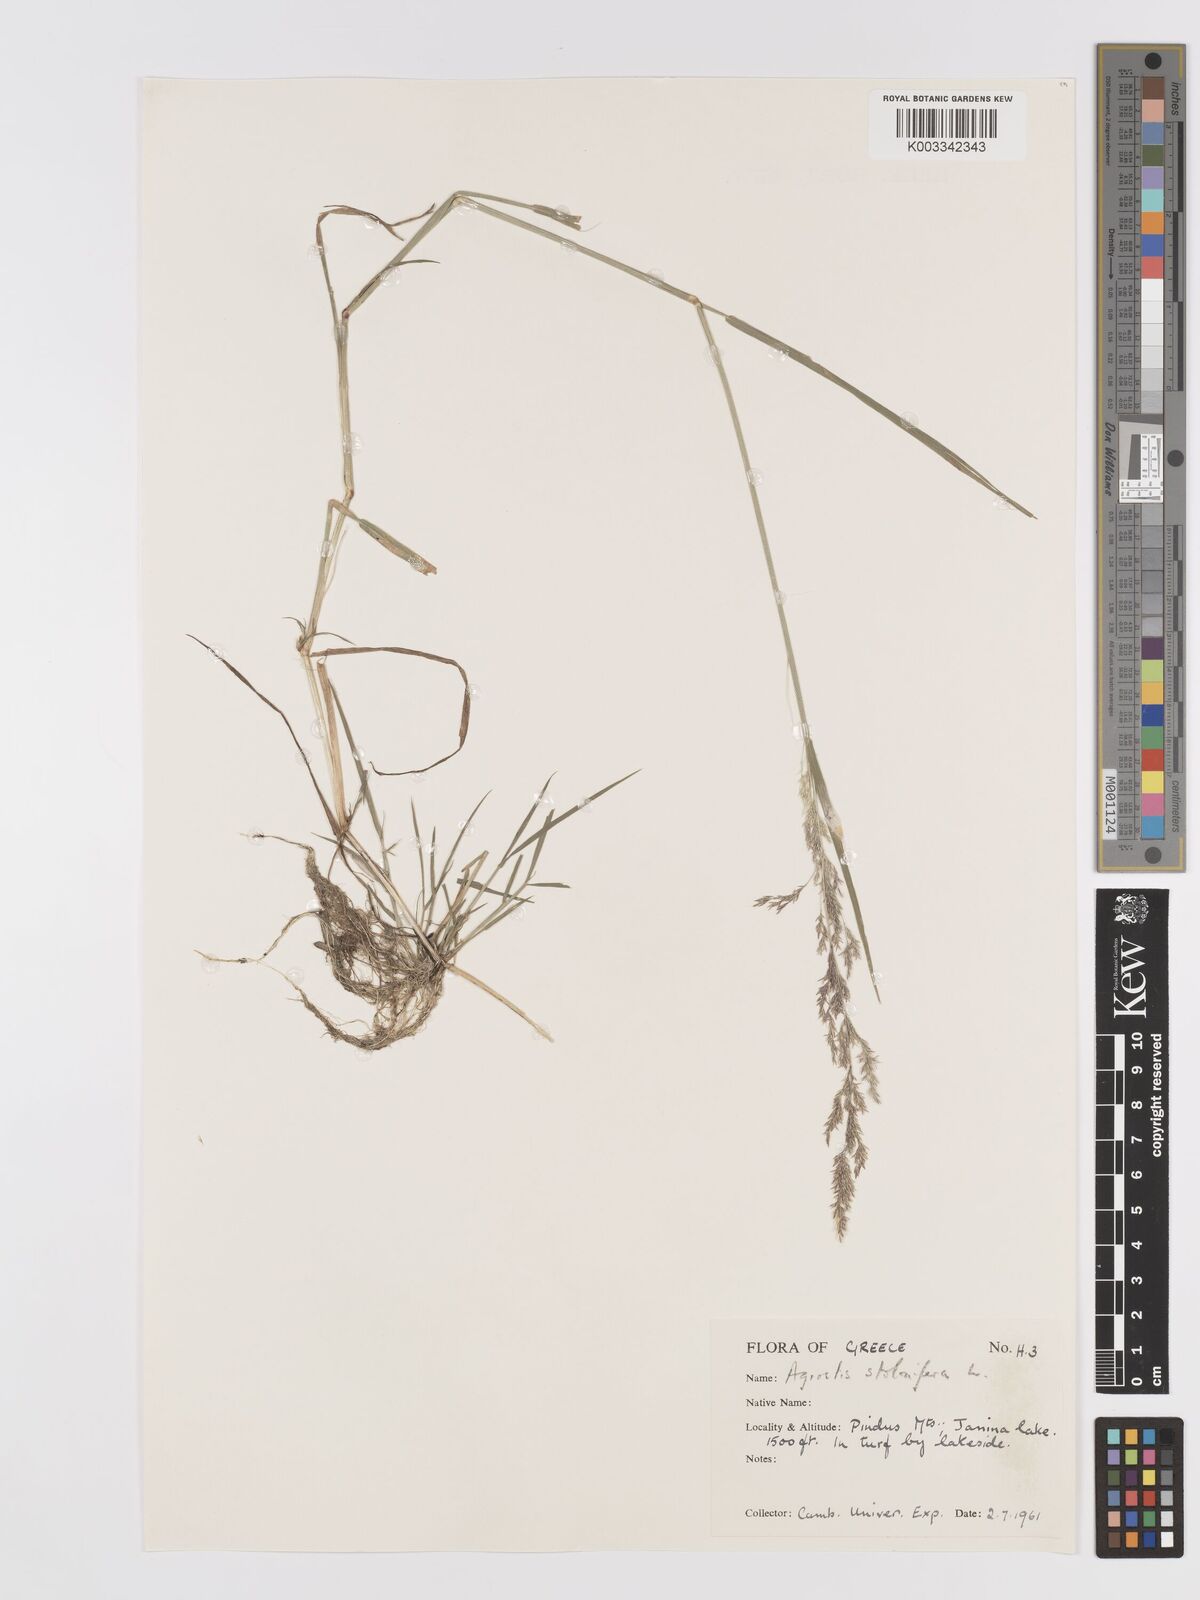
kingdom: Plantae
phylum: Tracheophyta
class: Liliopsida
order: Poales
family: Poaceae
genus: Agrostis
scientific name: Agrostis gigantea
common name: Black bent
